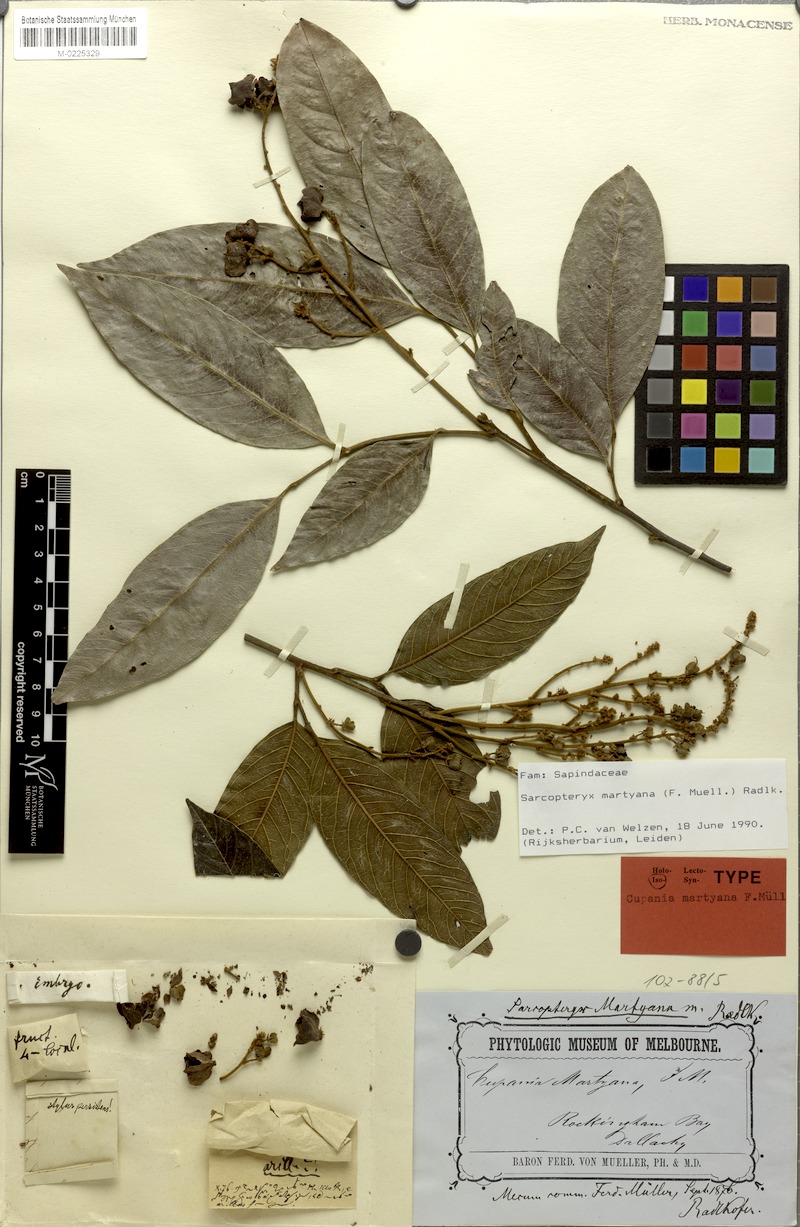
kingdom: Plantae
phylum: Tracheophyta
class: Magnoliopsida
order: Sapindales
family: Sapindaceae
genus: Sarcopteryx
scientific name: Sarcopteryx martyana
